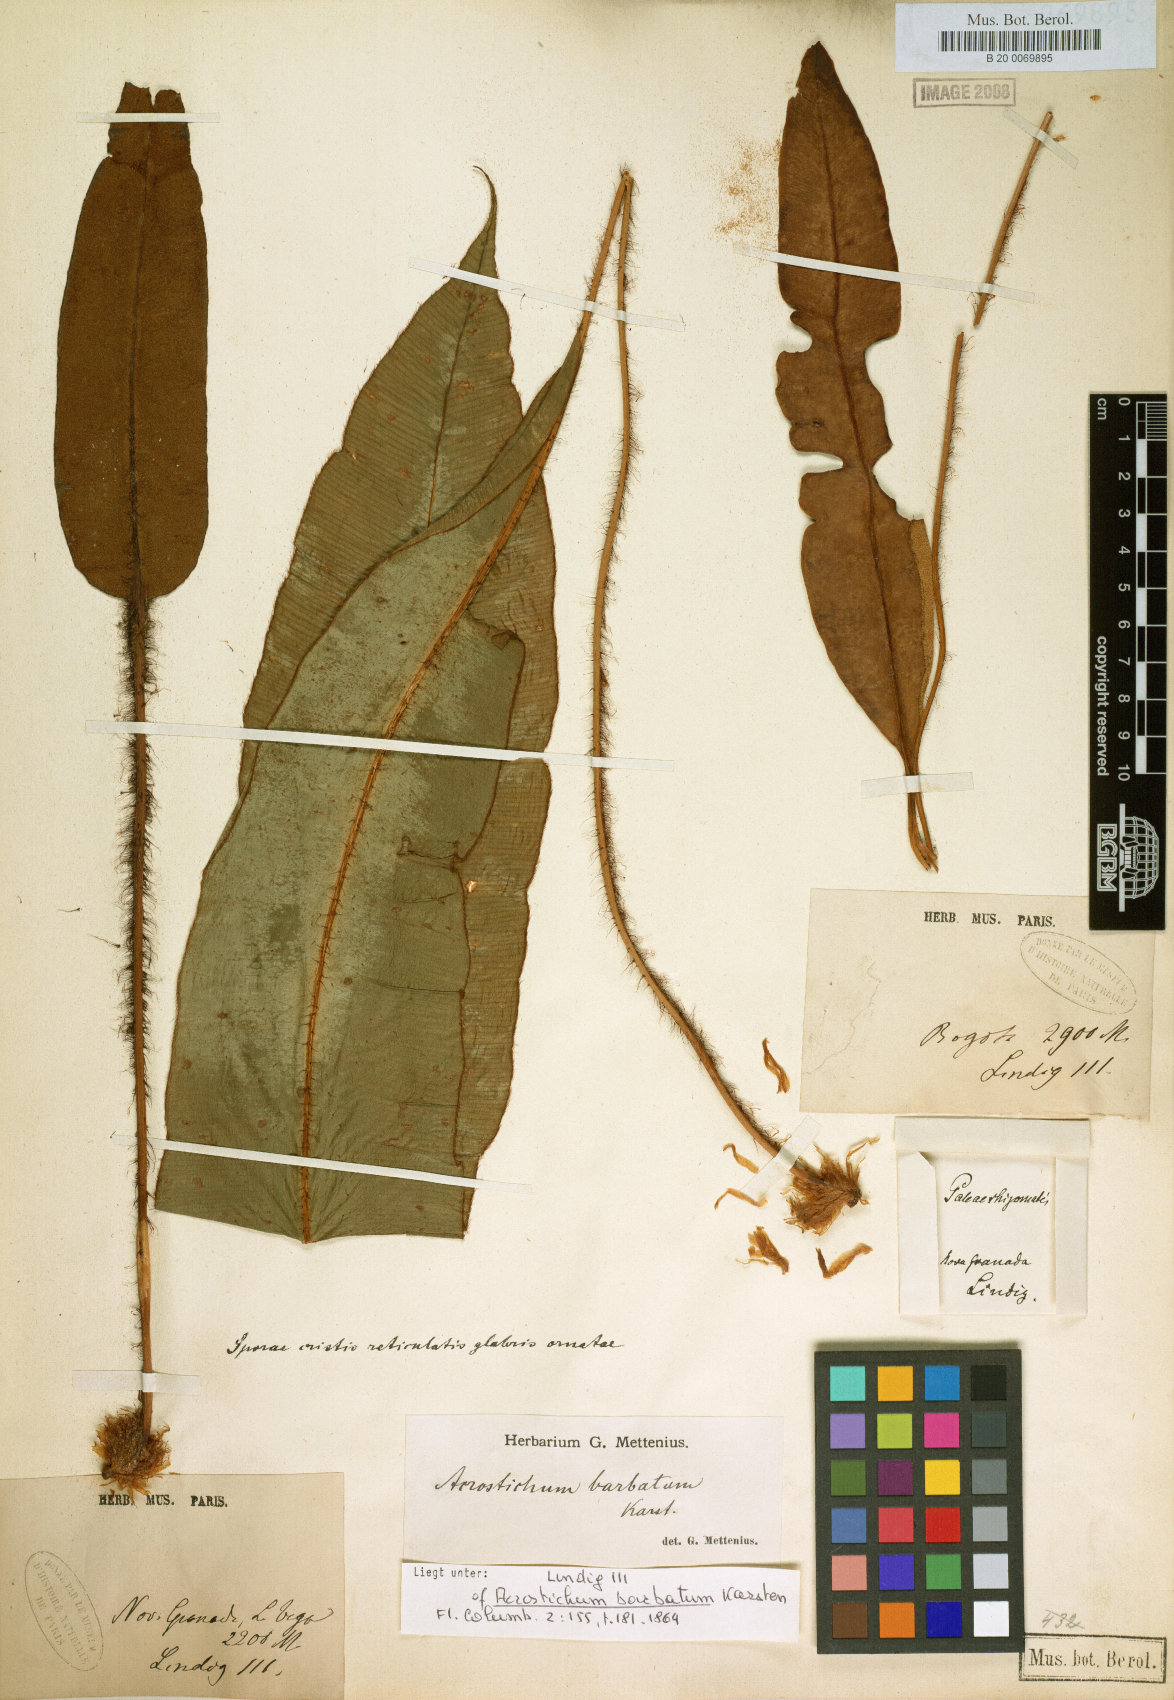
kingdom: Plantae
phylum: Tracheophyta
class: Polypodiopsida
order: Polypodiales
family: Dryopteridaceae
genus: Elaphoglossum
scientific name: Elaphoglossum barbatum
